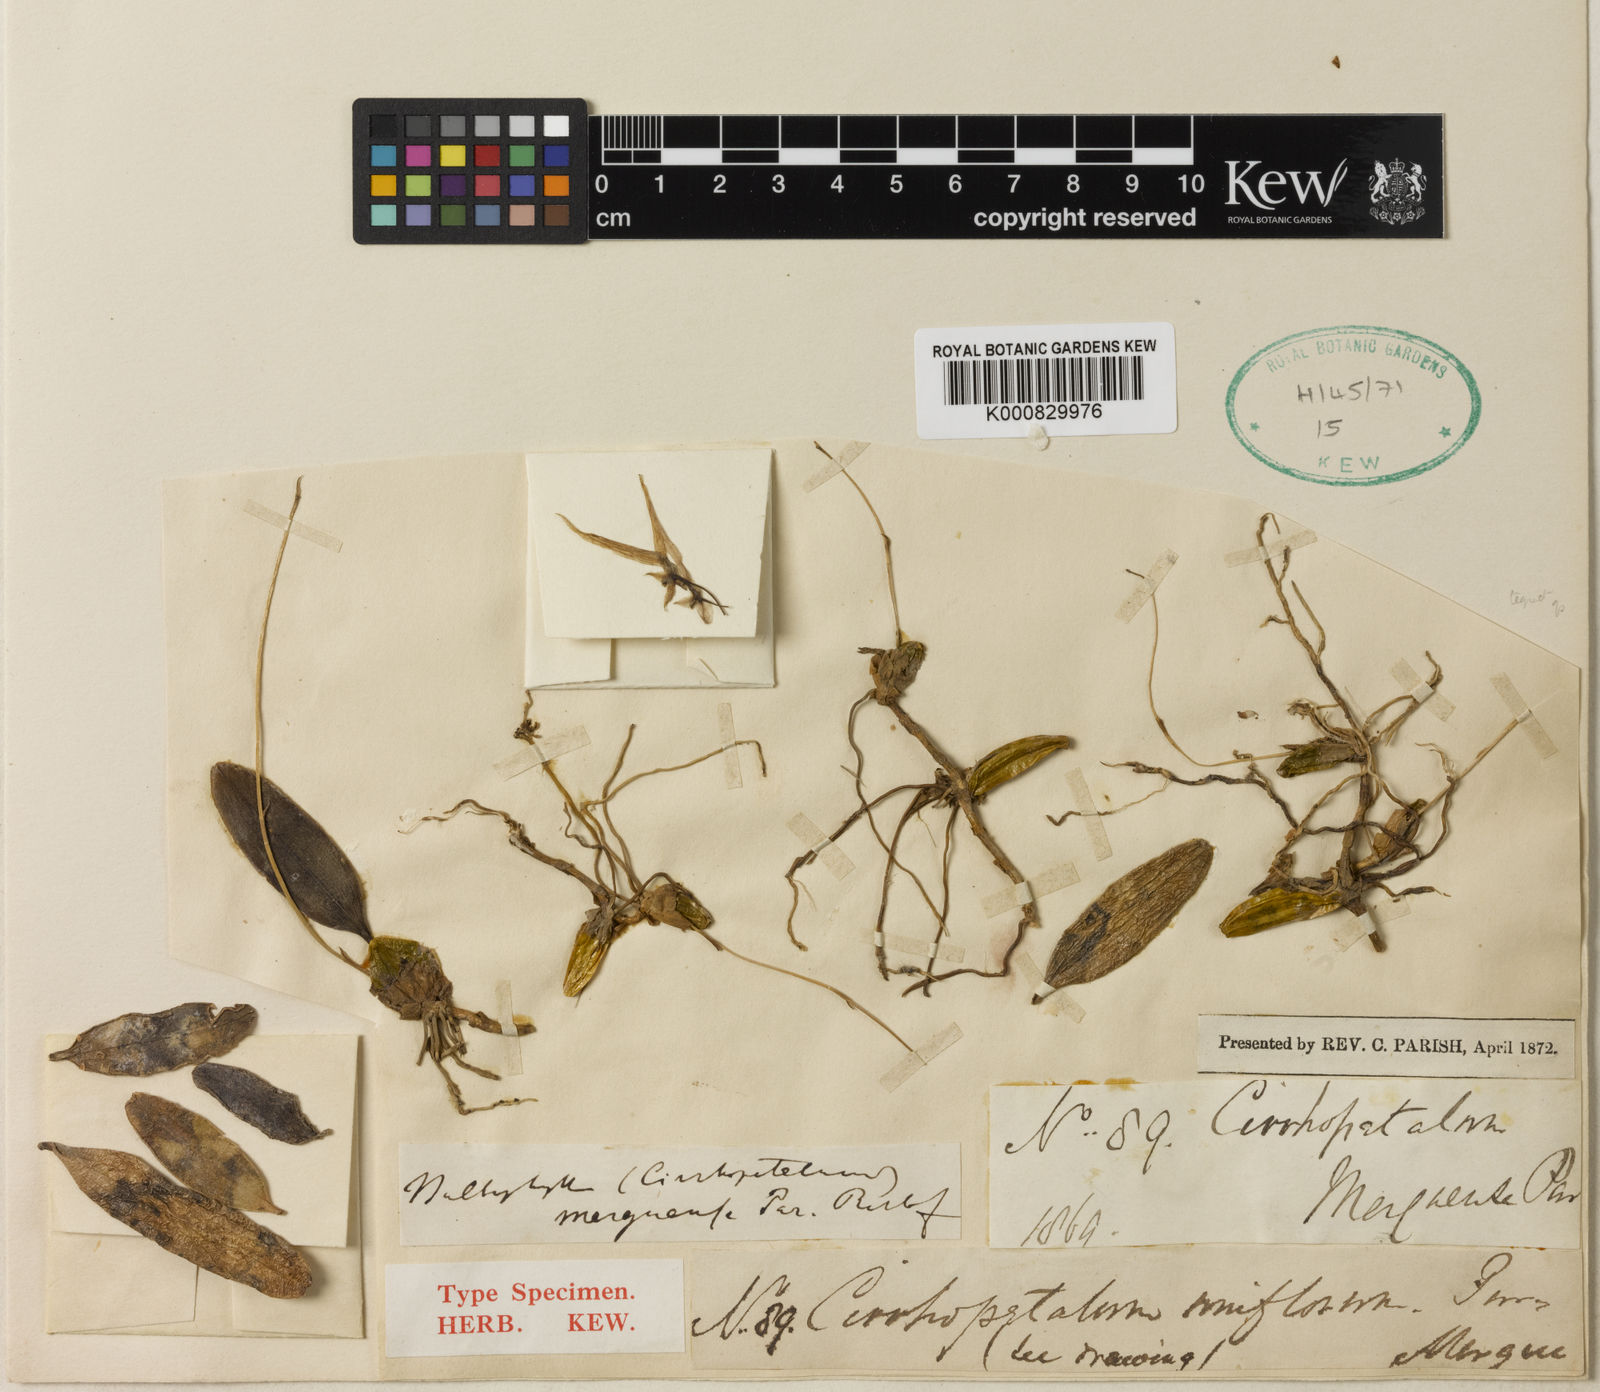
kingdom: Plantae
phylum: Tracheophyta
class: Liliopsida
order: Asparagales
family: Orchidaceae
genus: Bulbophyllum
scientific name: Bulbophyllum lineatum
